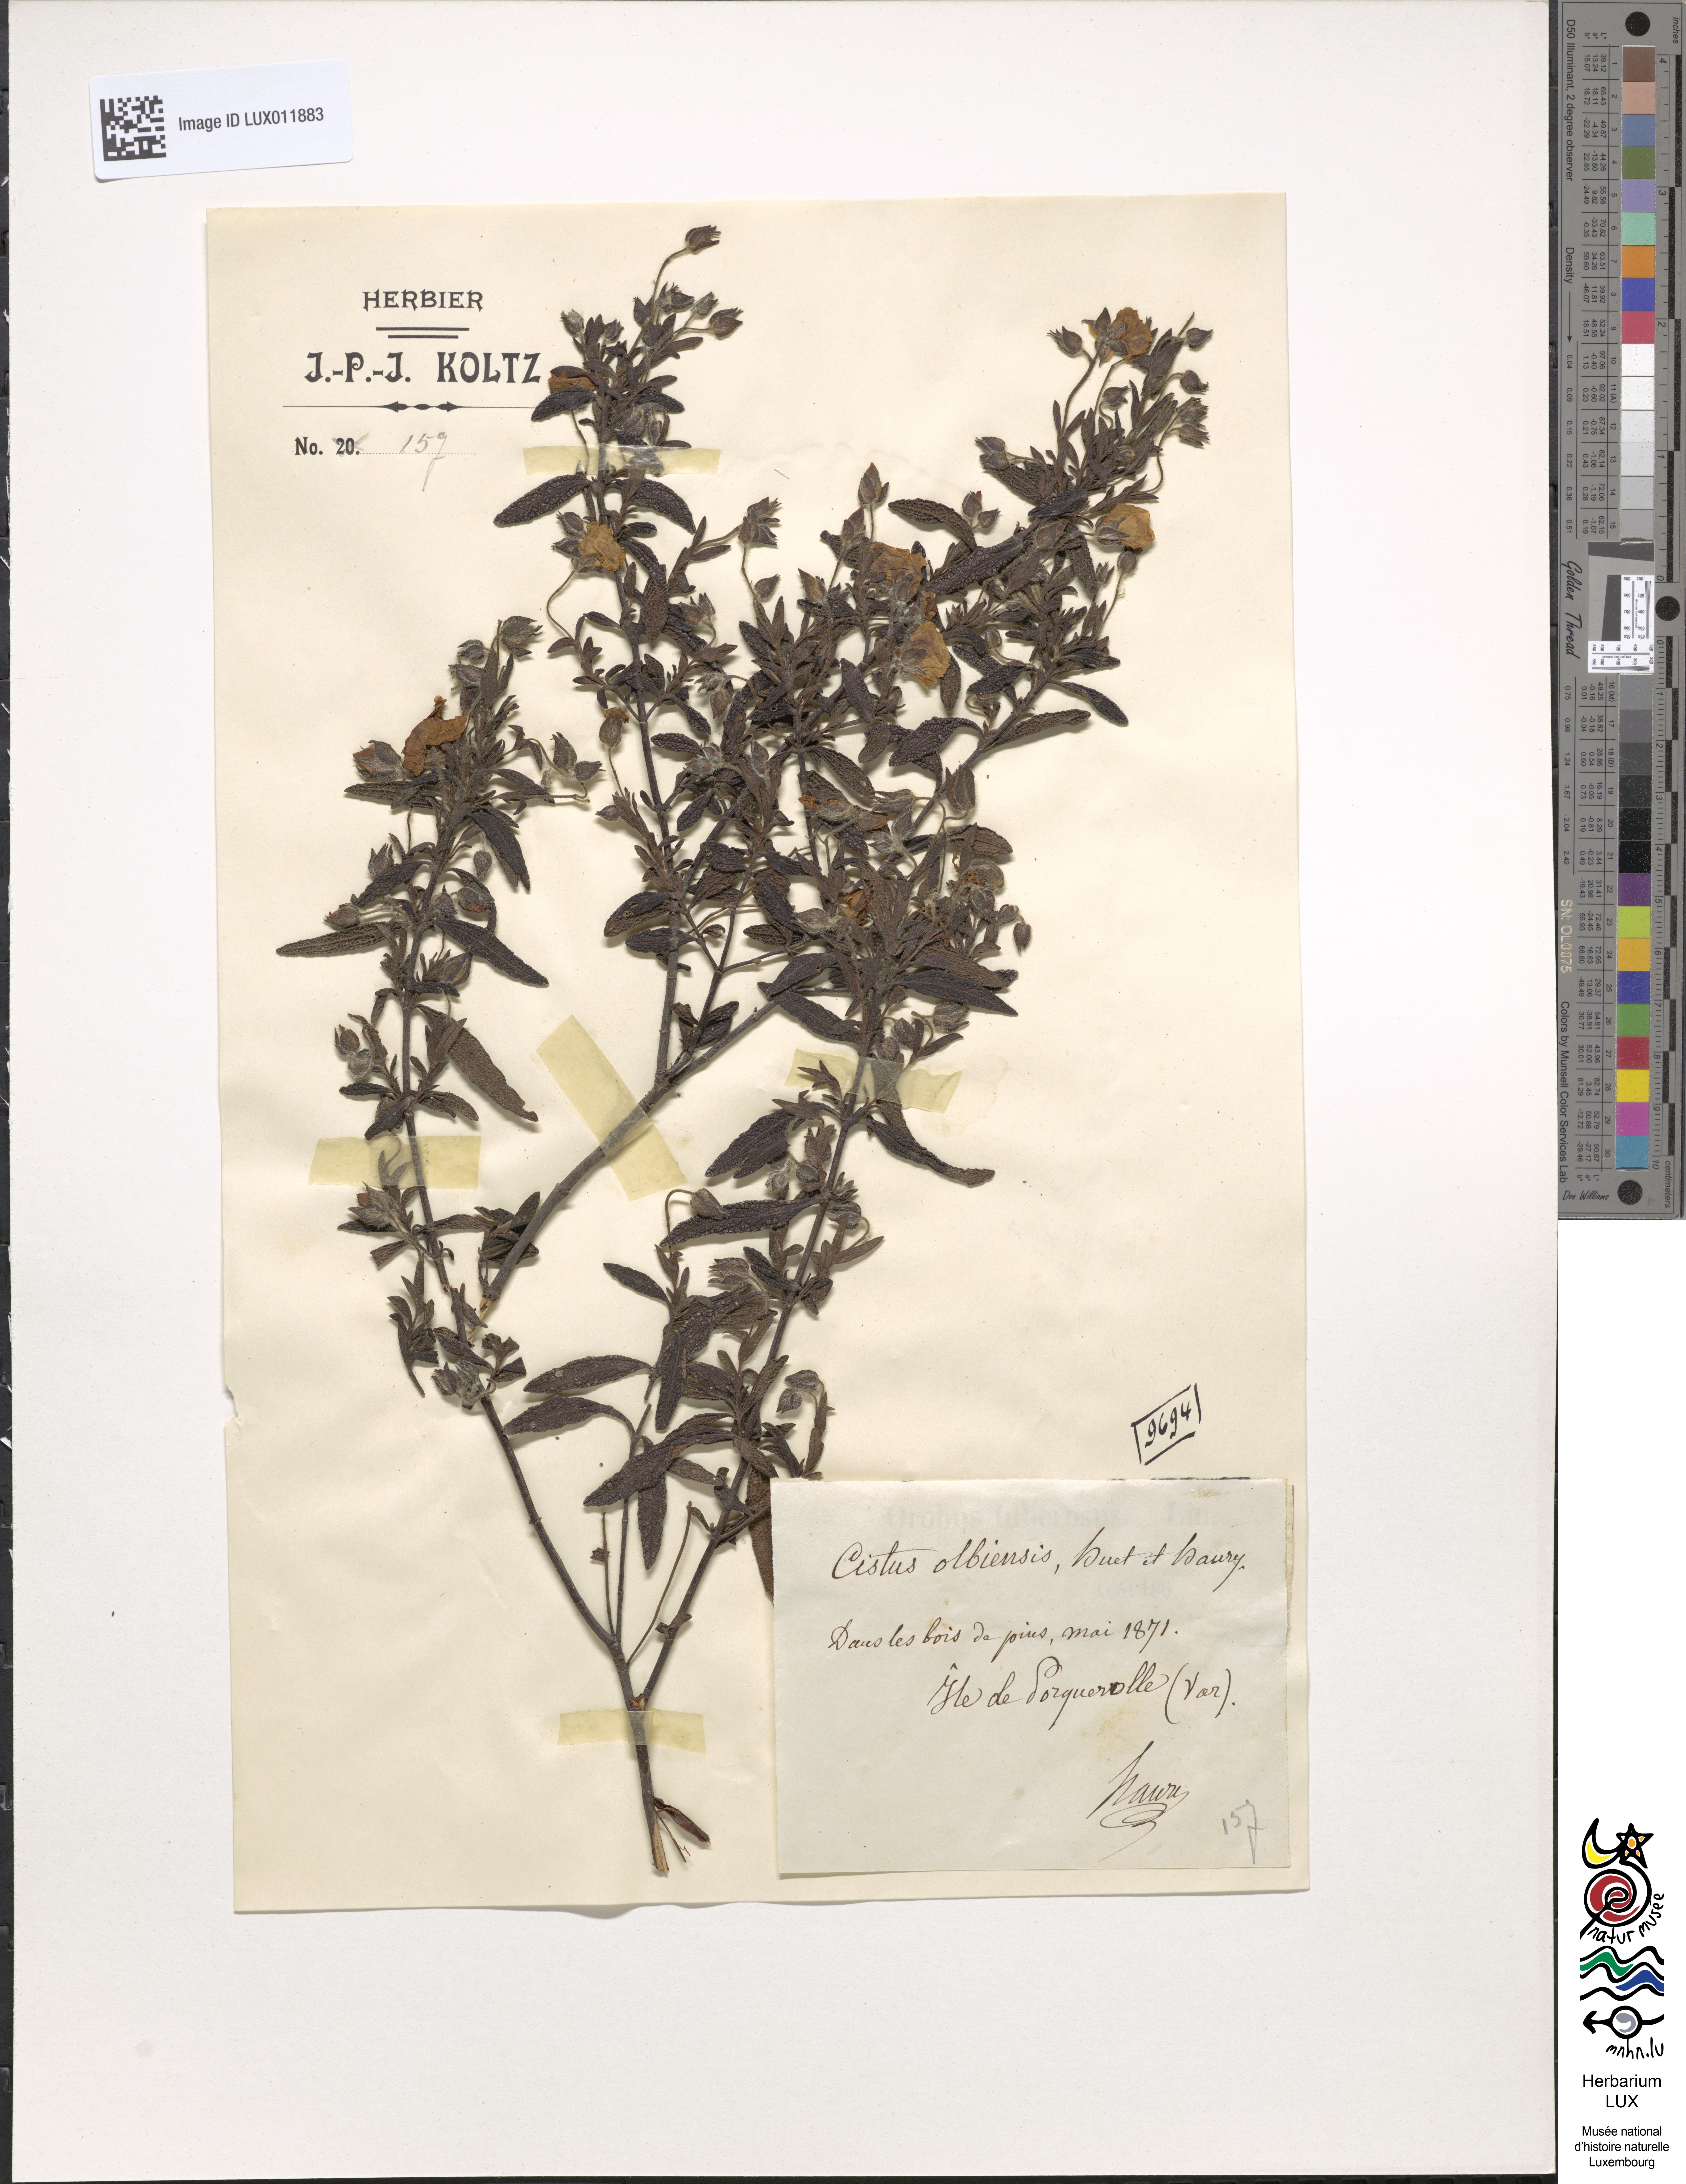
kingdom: Plantae
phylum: Tracheophyta
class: Magnoliopsida
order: Malvales
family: Cistaceae
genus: Cistus
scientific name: Cistus florentinus
